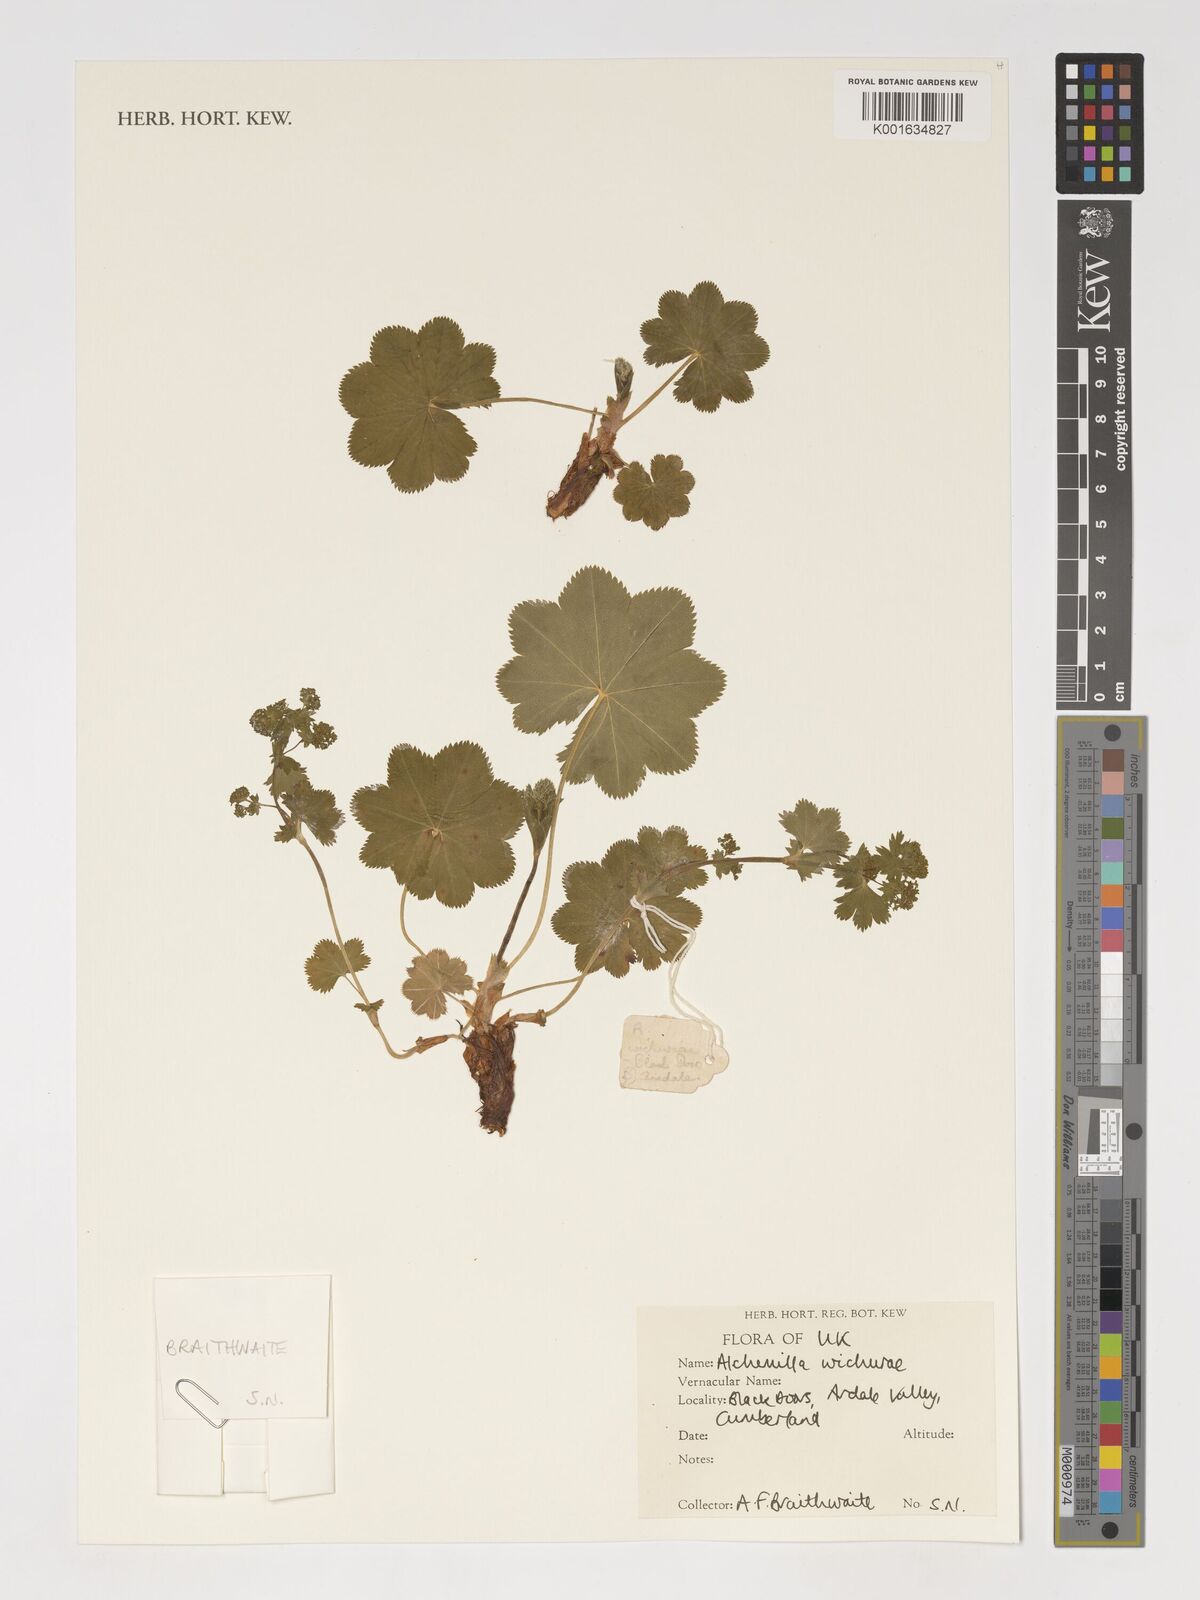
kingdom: Plantae
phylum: Tracheophyta
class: Magnoliopsida
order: Rosales
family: Rosaceae
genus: Alchemilla
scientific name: Alchemilla wichurae
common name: Rock lady's mantle
